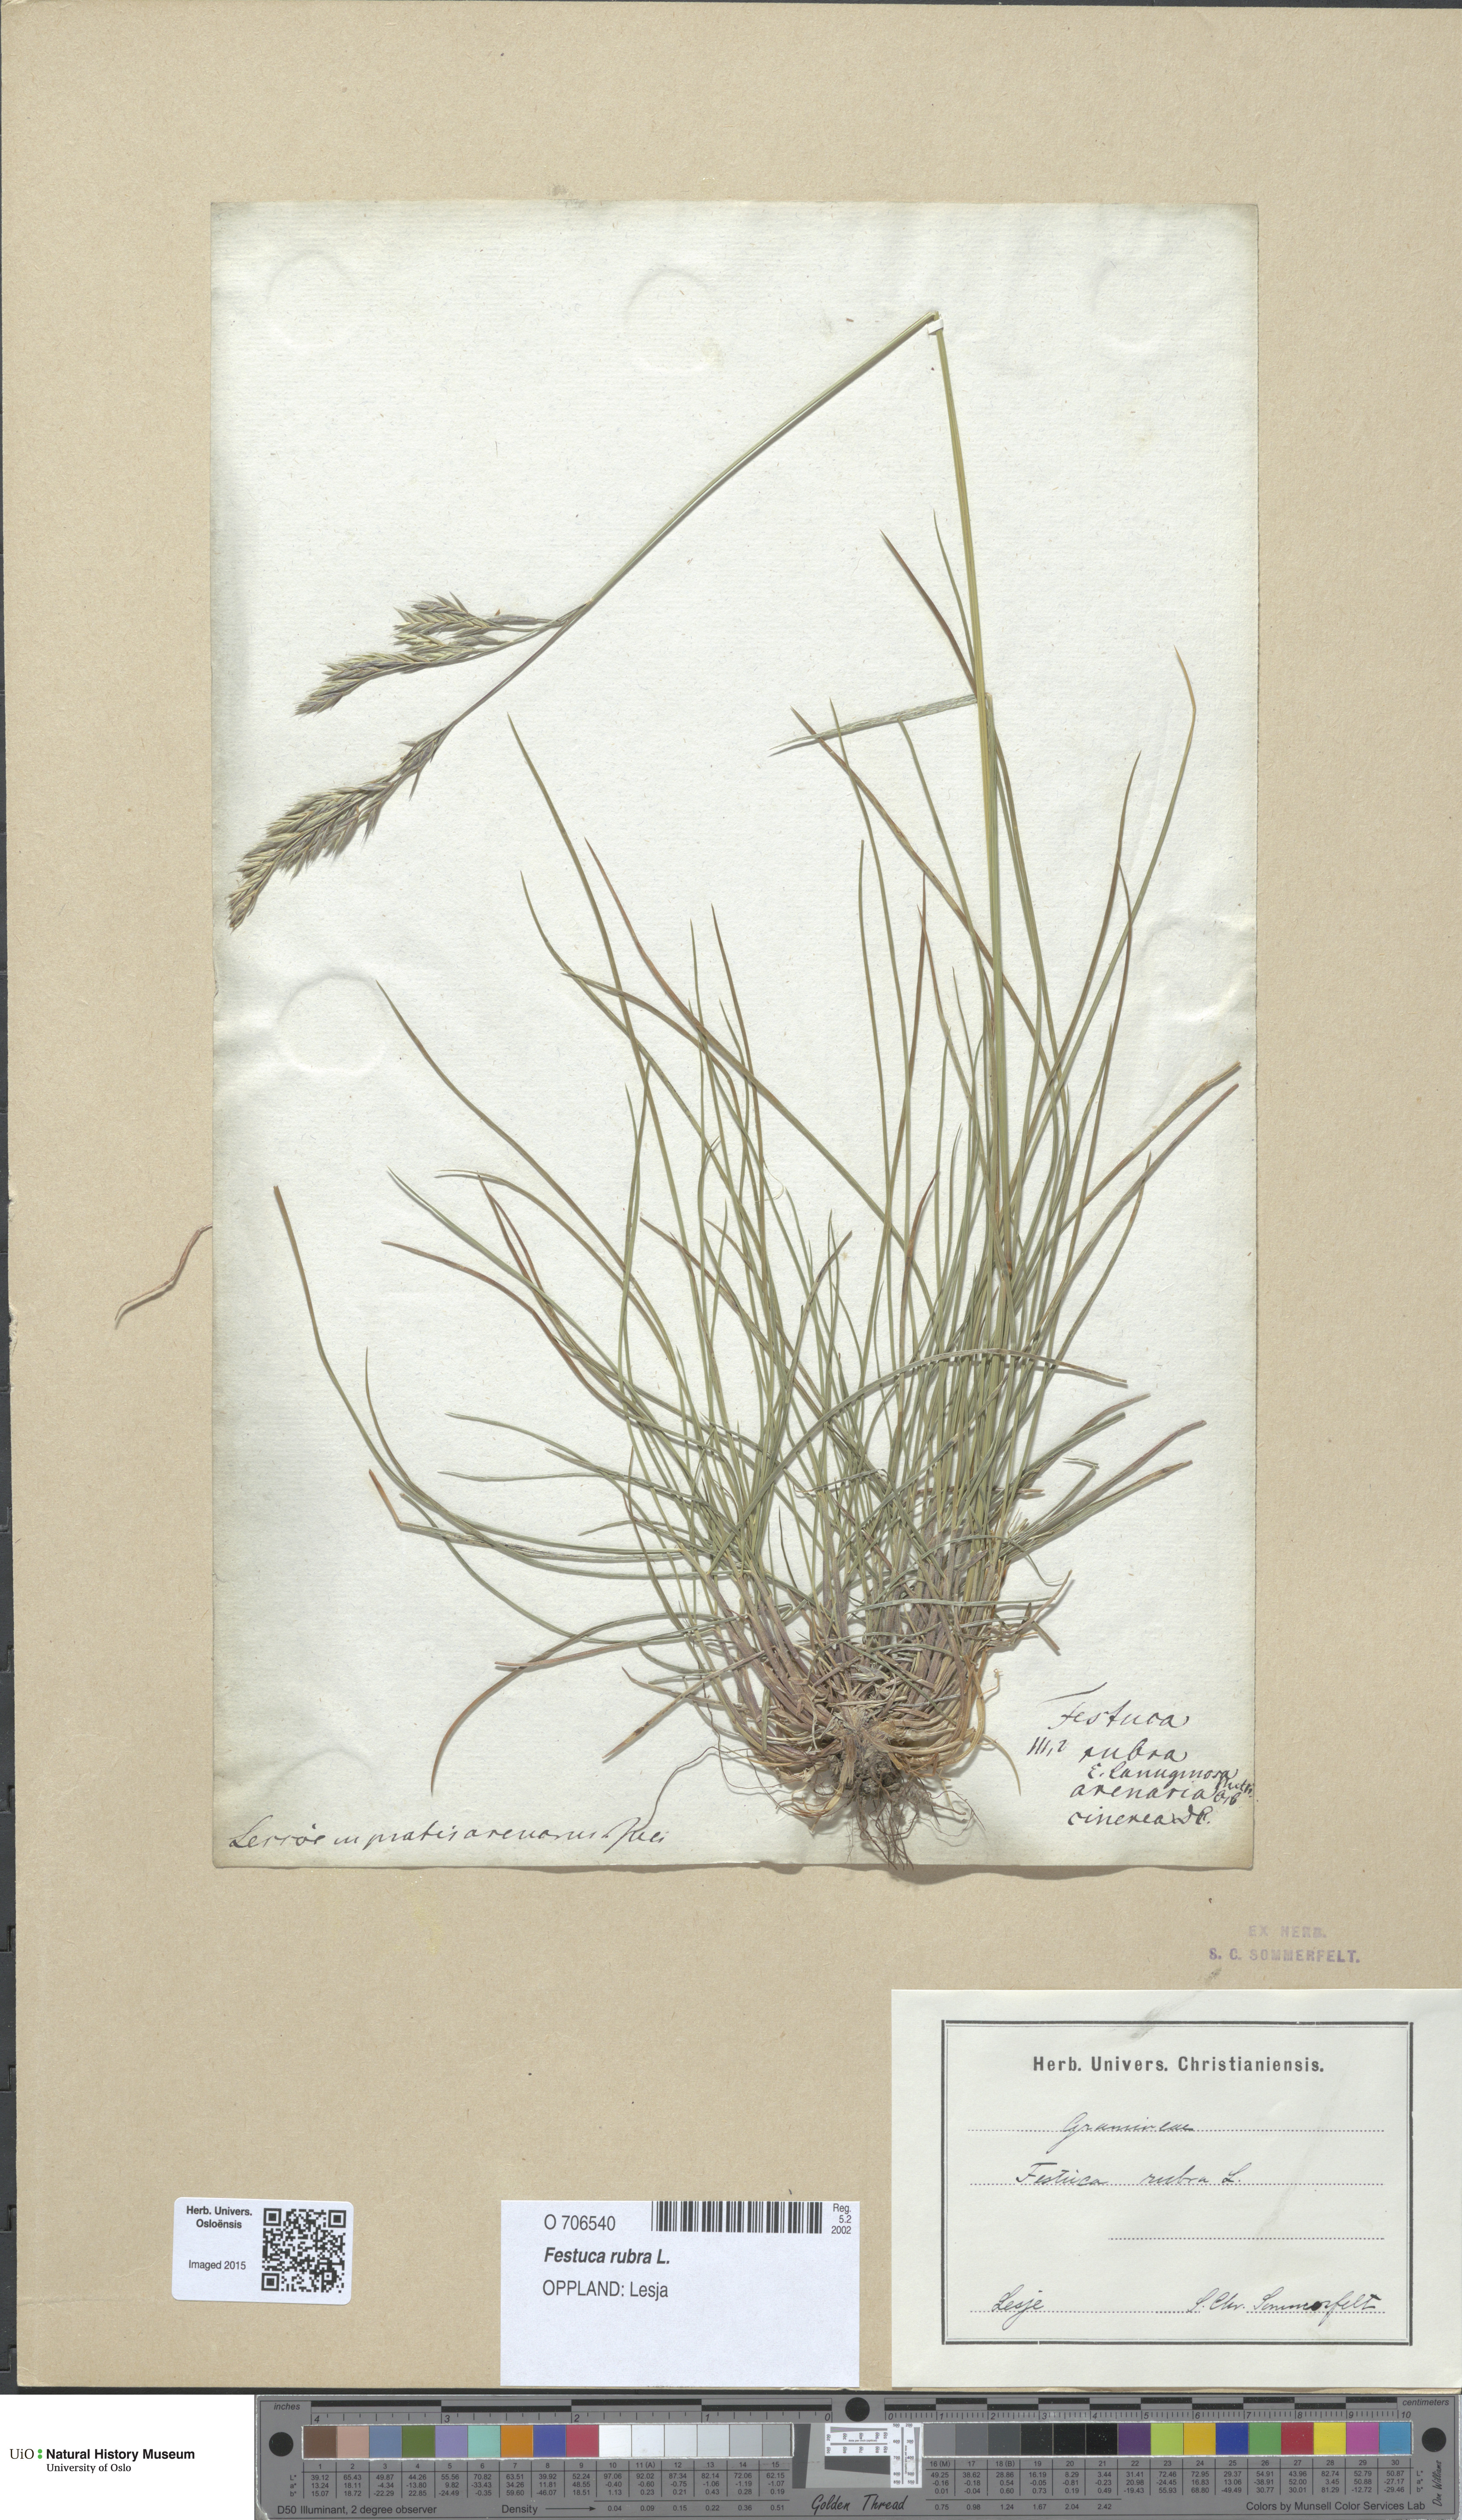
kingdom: Plantae
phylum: Tracheophyta
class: Liliopsida
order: Poales
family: Poaceae
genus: Festuca
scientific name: Festuca rubra
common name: Red fescue
